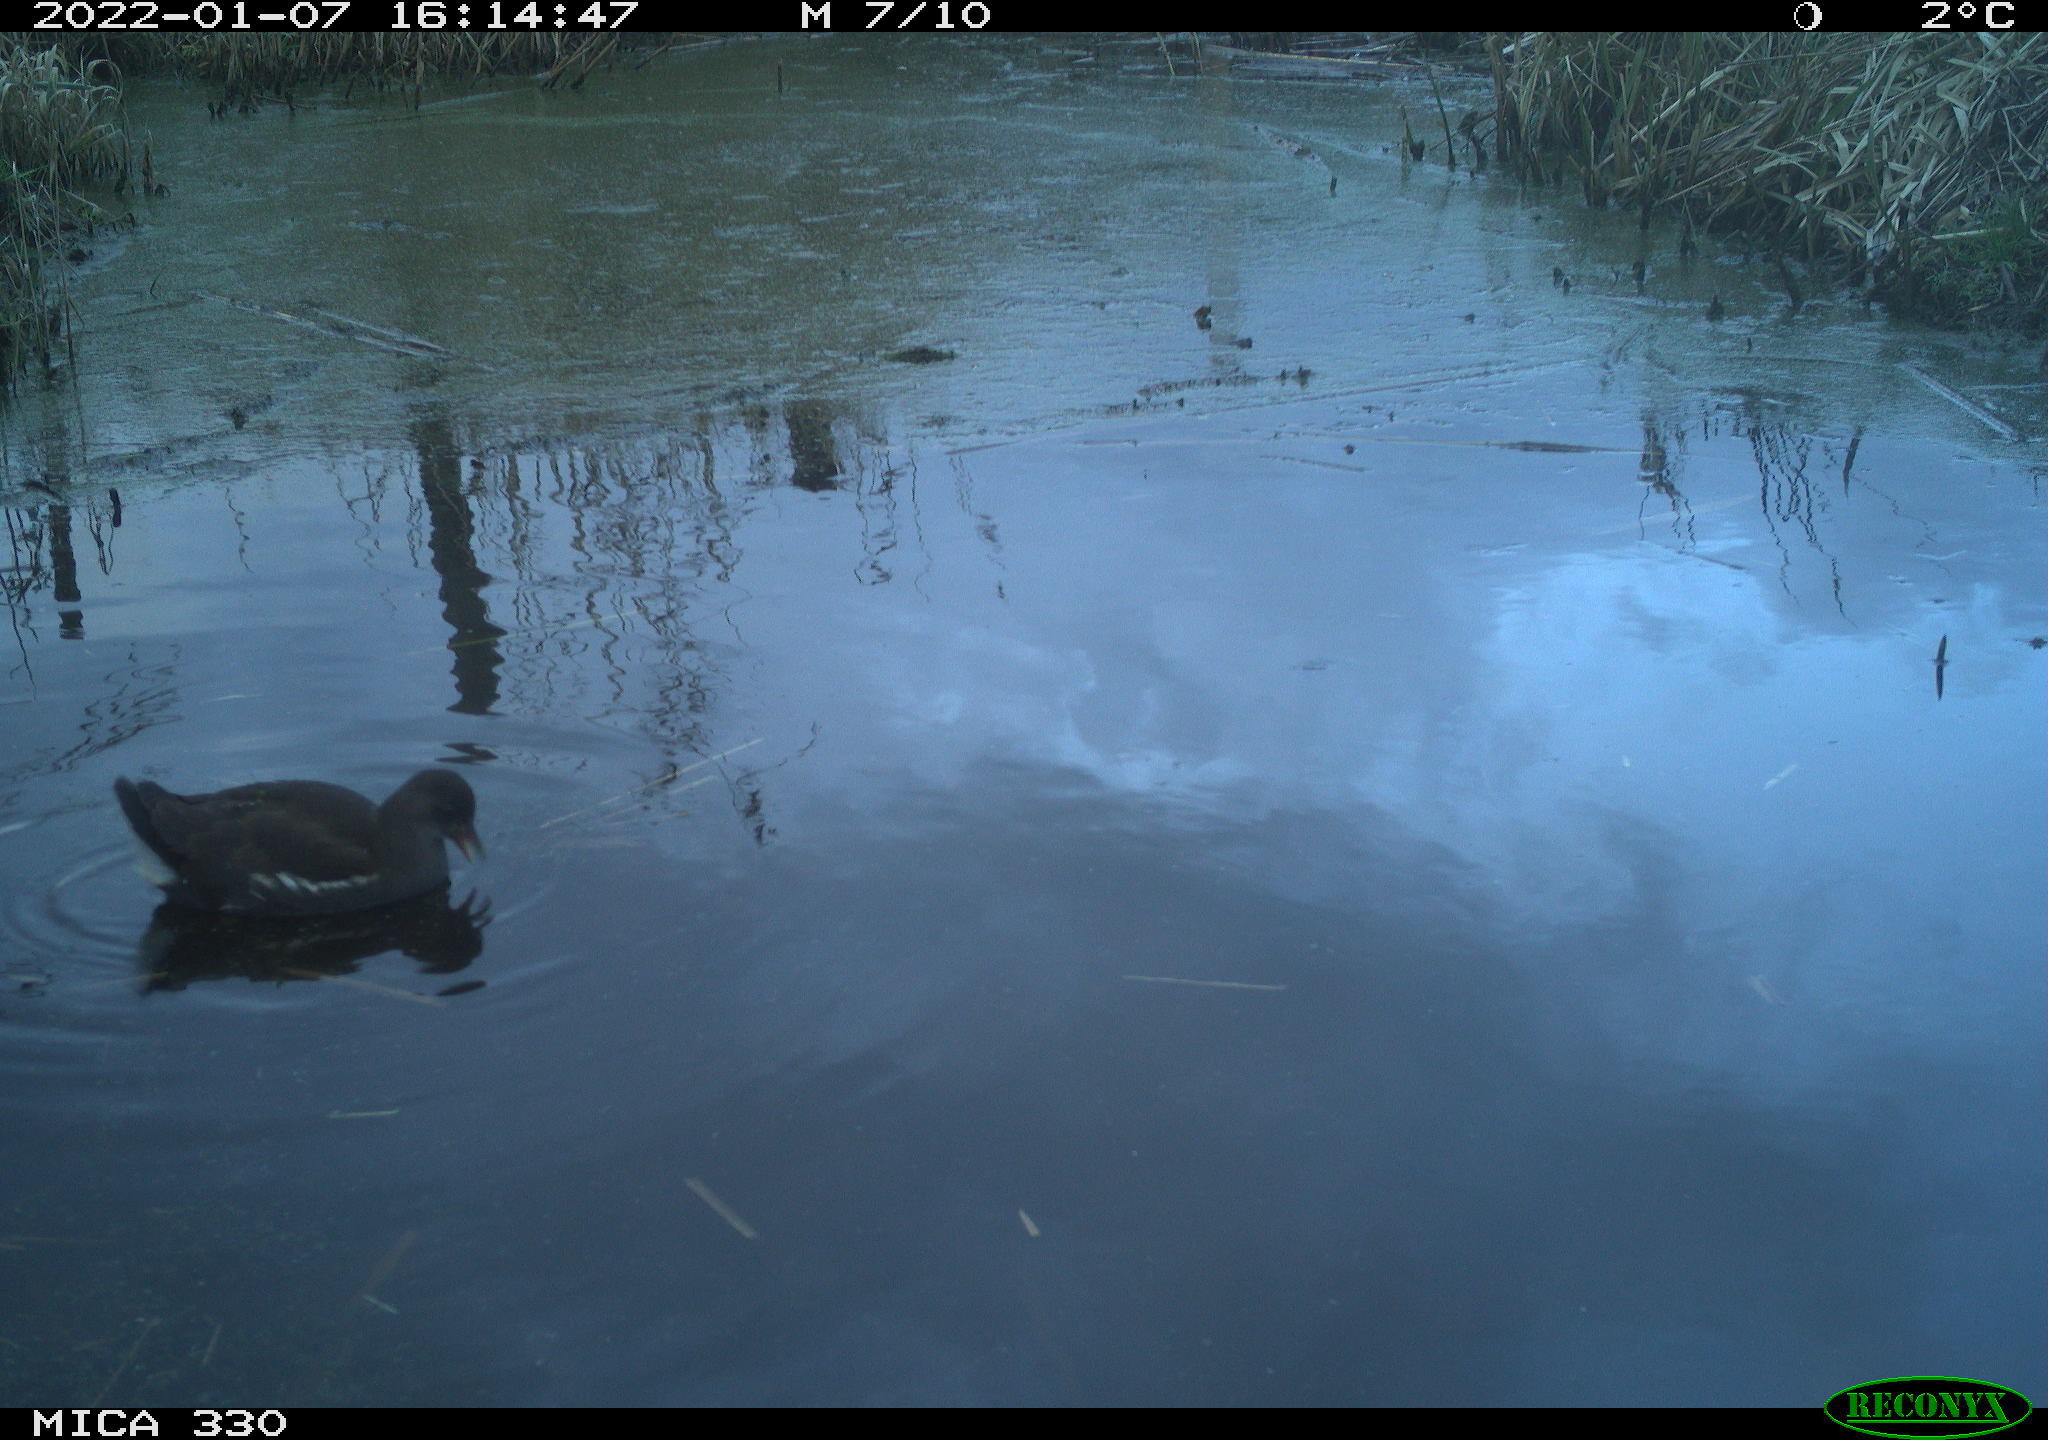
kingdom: Animalia
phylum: Chordata
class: Aves
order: Gruiformes
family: Rallidae
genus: Gallinula
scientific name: Gallinula chloropus
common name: Common moorhen
